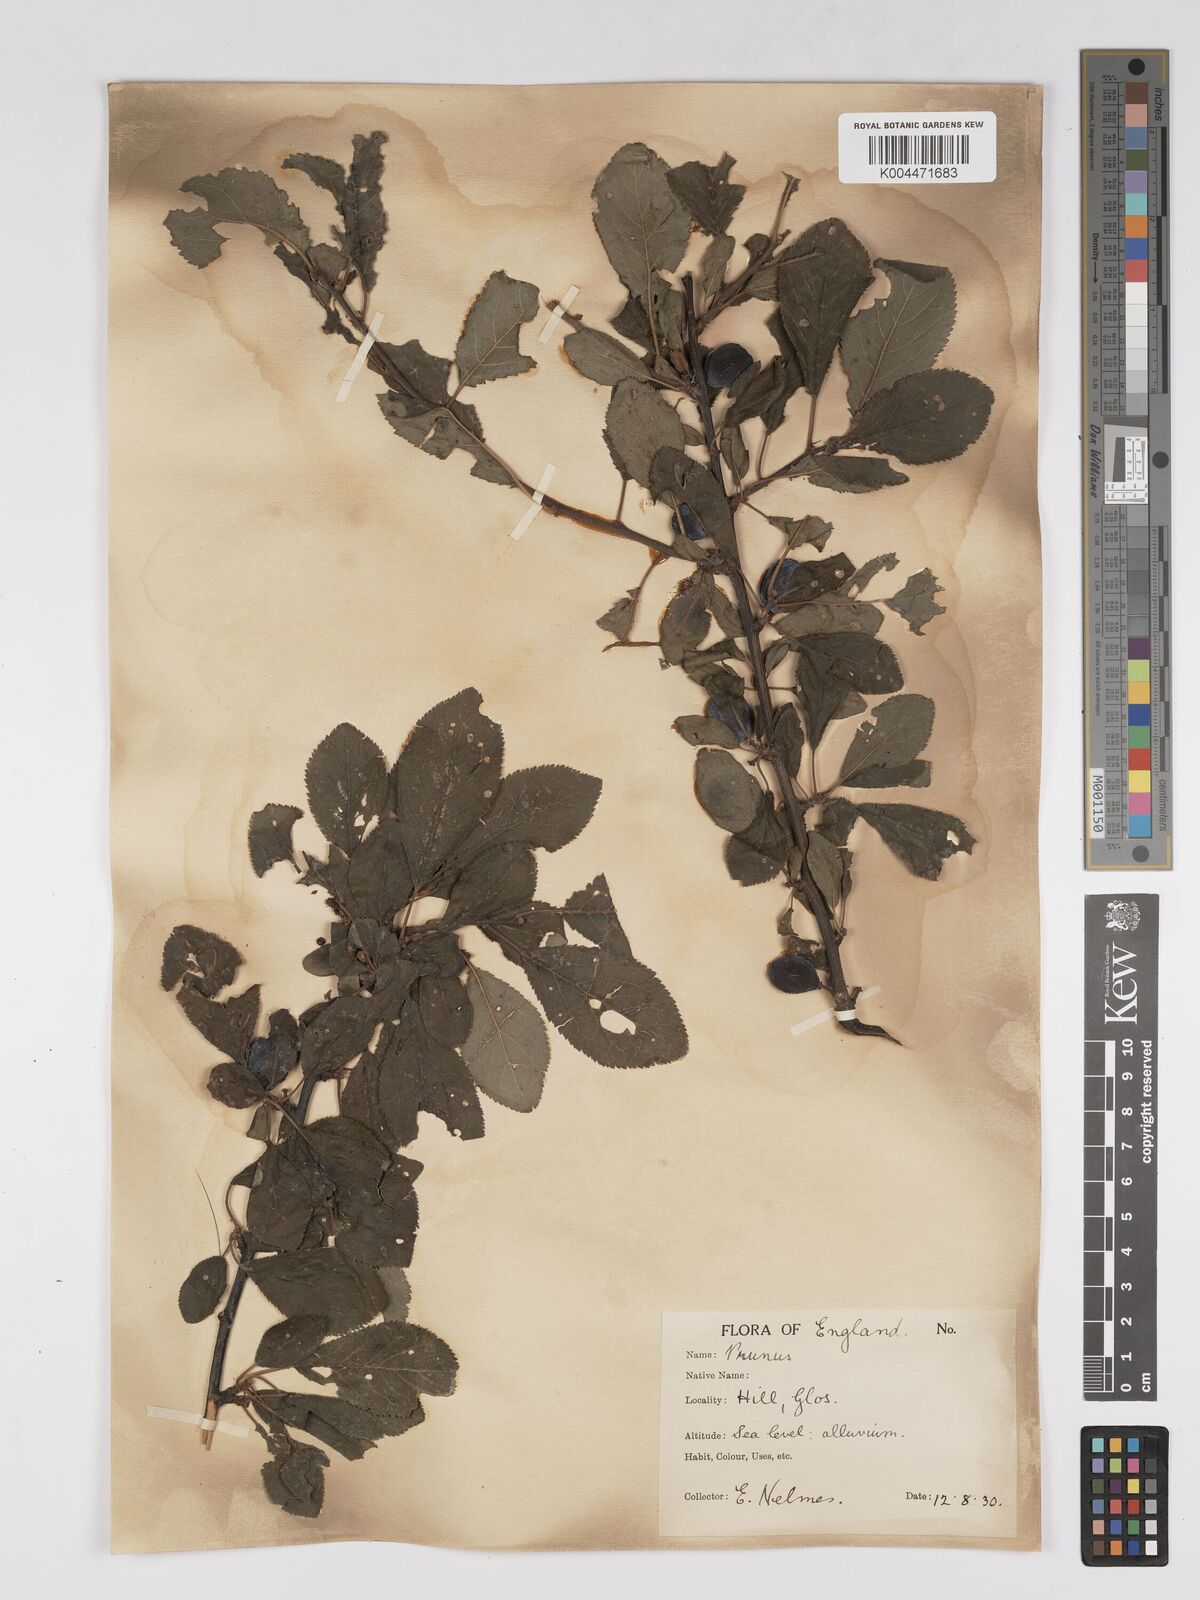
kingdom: Plantae
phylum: Tracheophyta
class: Magnoliopsida
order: Rosales
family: Rosaceae
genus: Prunus
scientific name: Prunus
